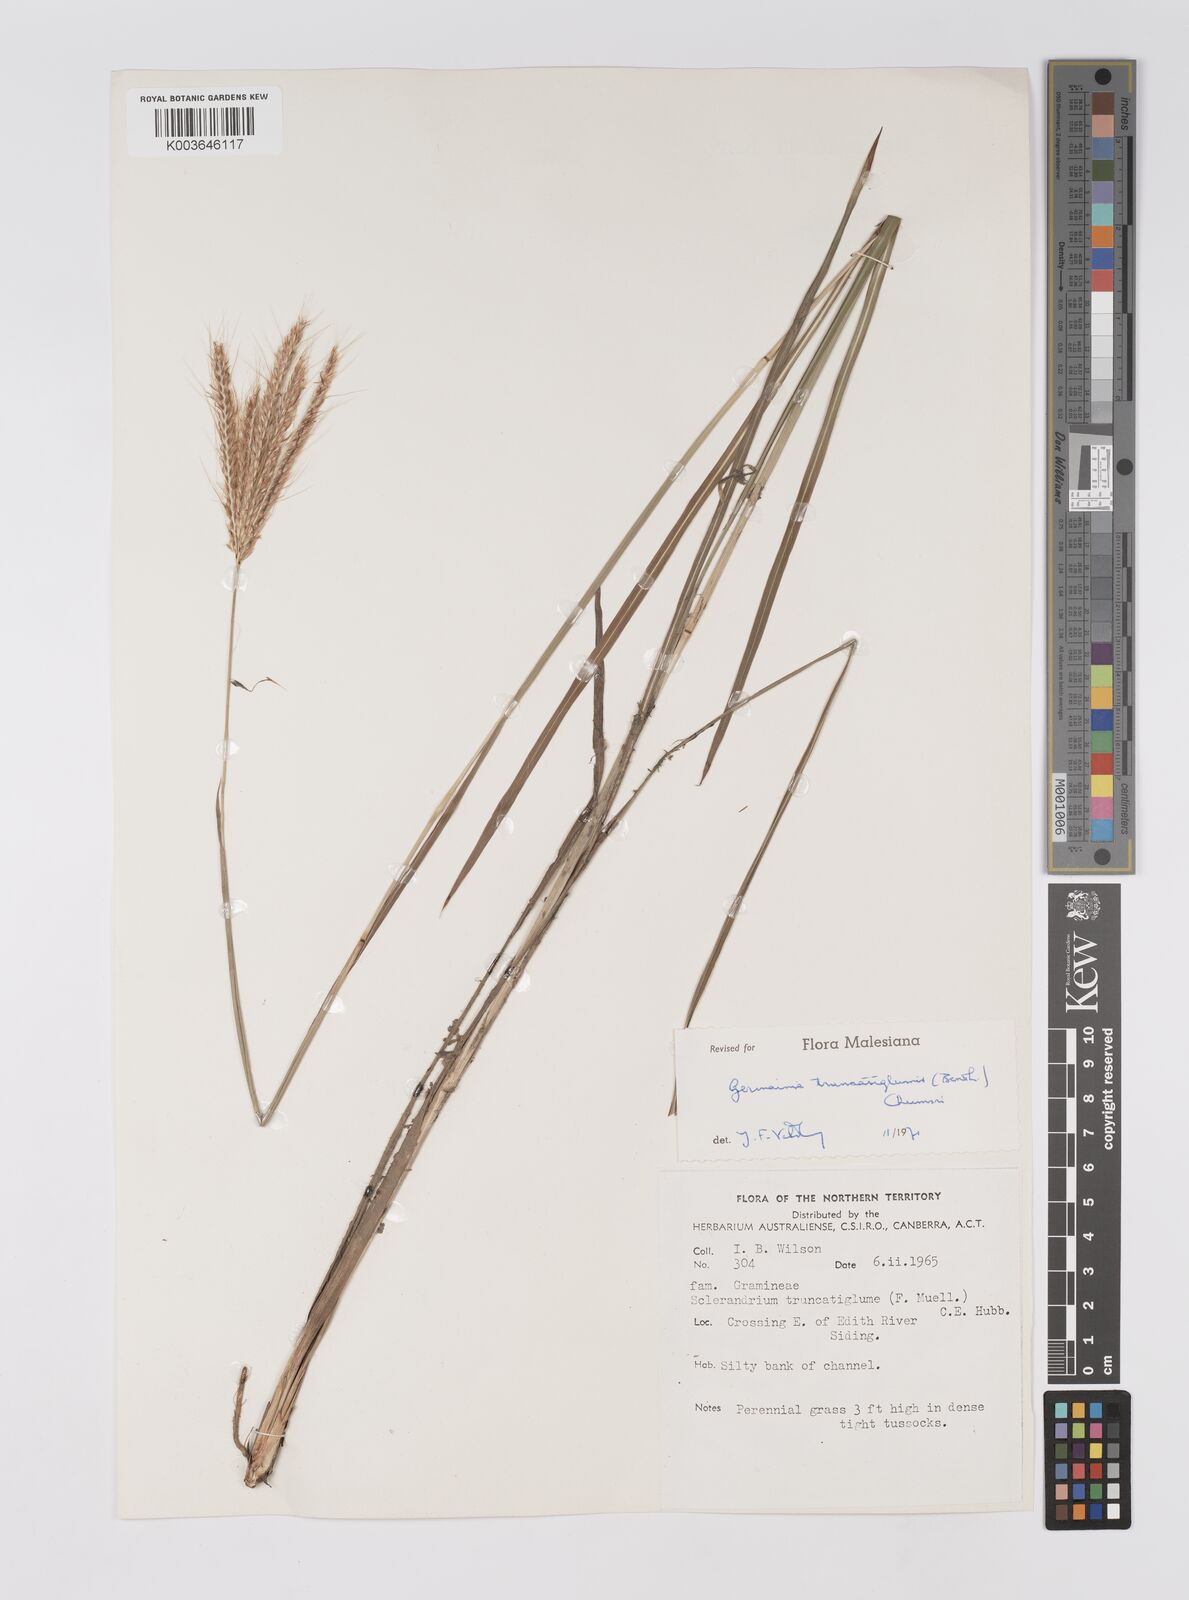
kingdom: Plantae
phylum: Tracheophyta
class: Liliopsida
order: Poales
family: Poaceae
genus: Germainia
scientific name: Germainia truncatiglumis
